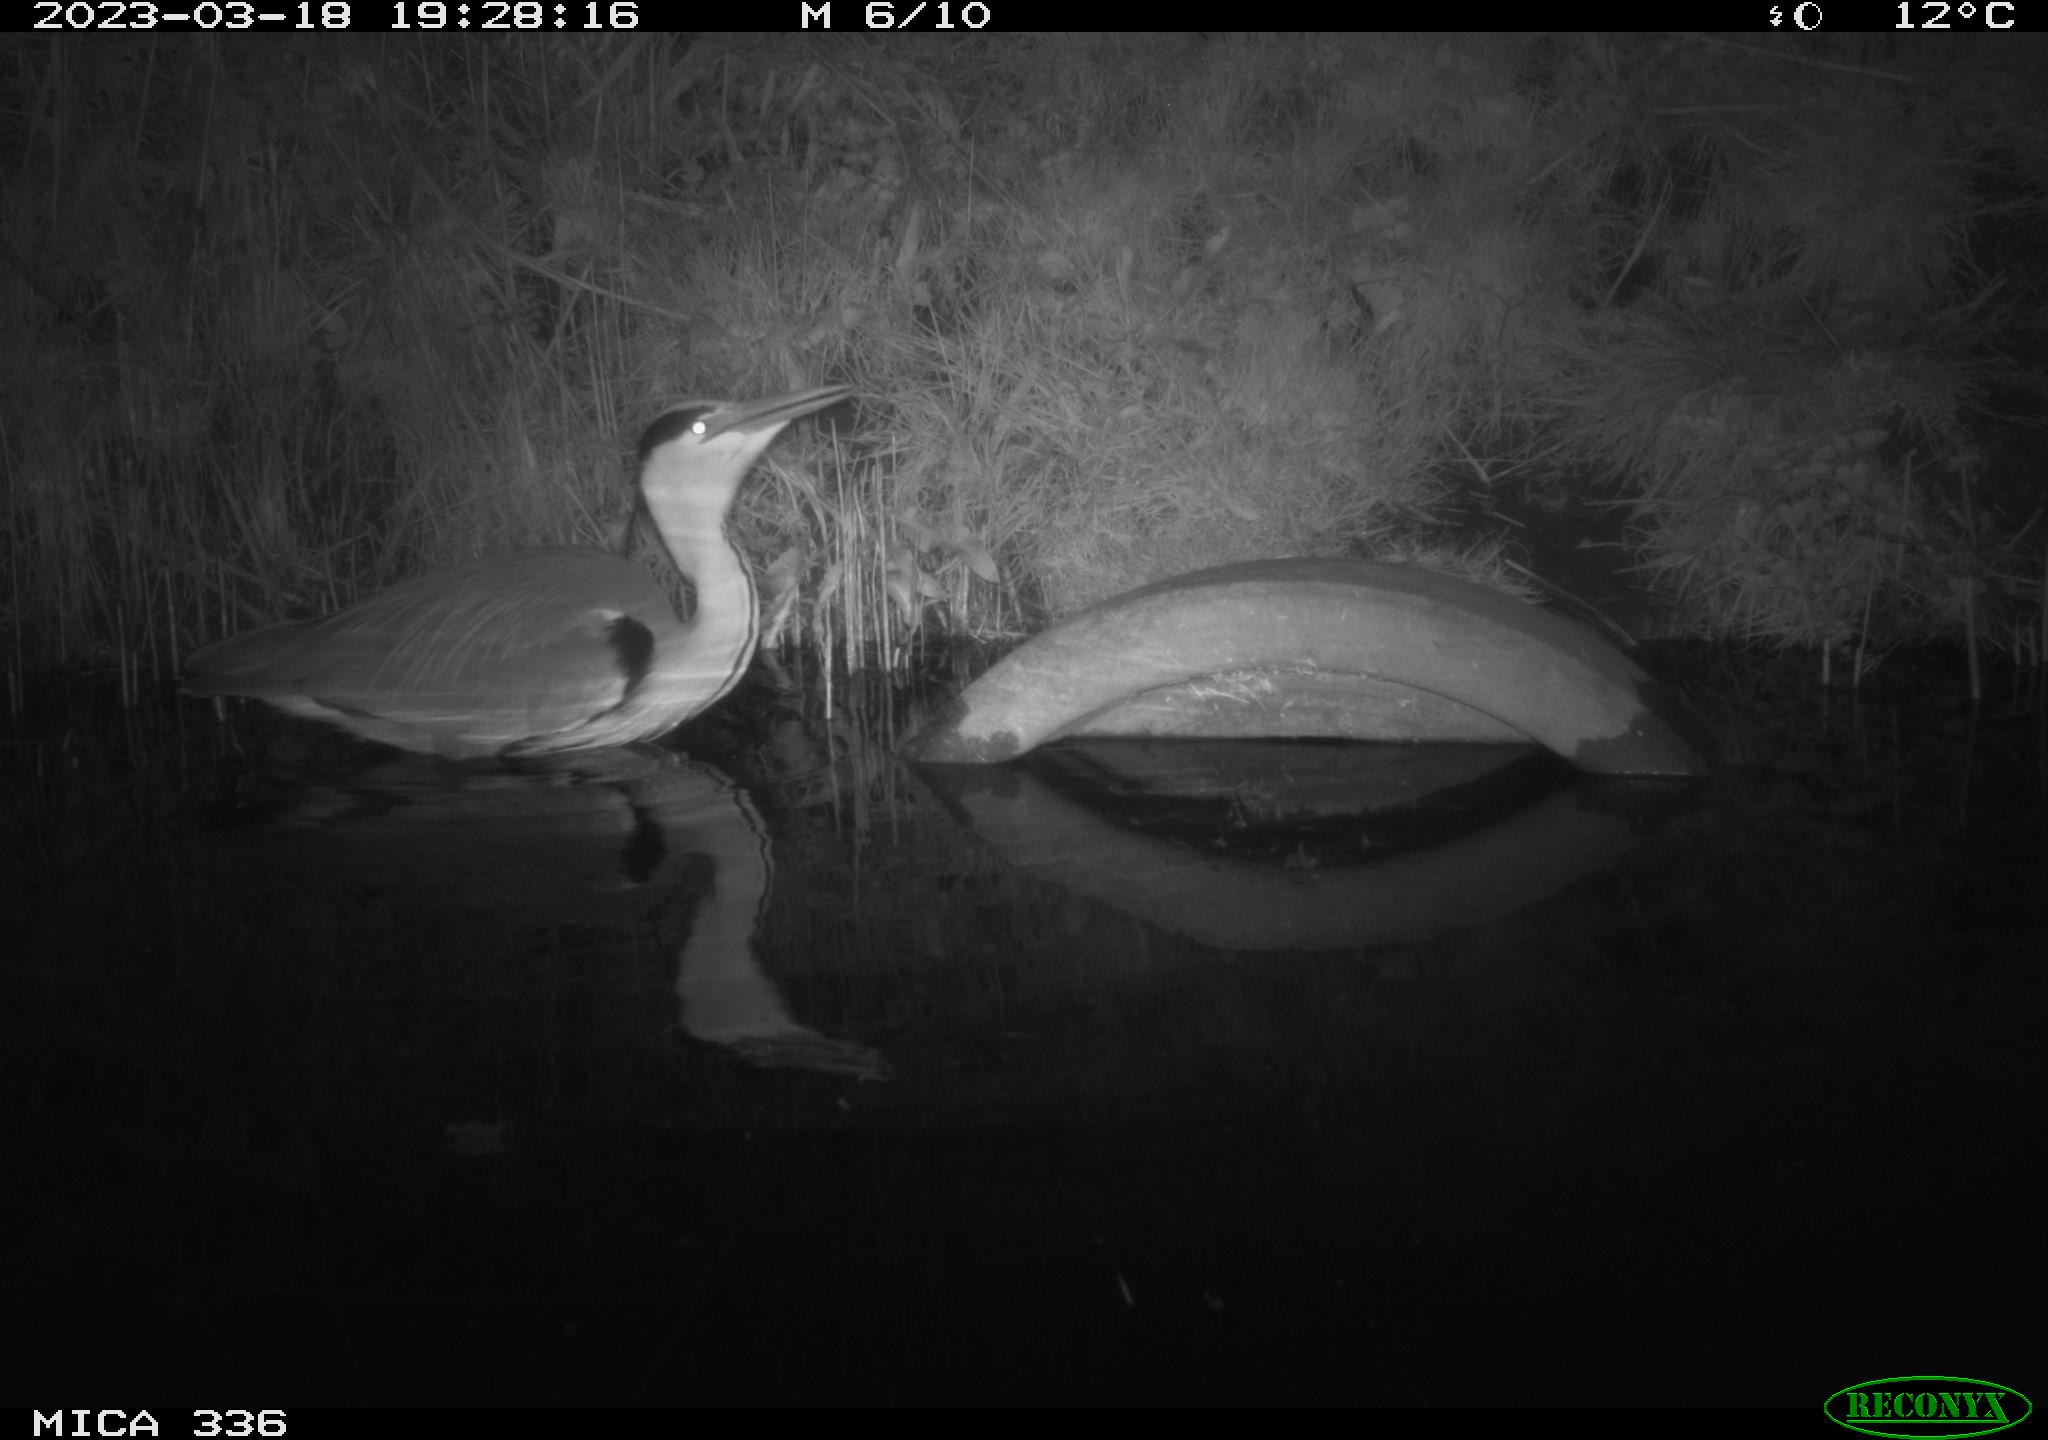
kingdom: Animalia
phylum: Chordata
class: Aves
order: Pelecaniformes
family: Ardeidae
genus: Ardea
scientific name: Ardea cinerea
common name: Grey heron
